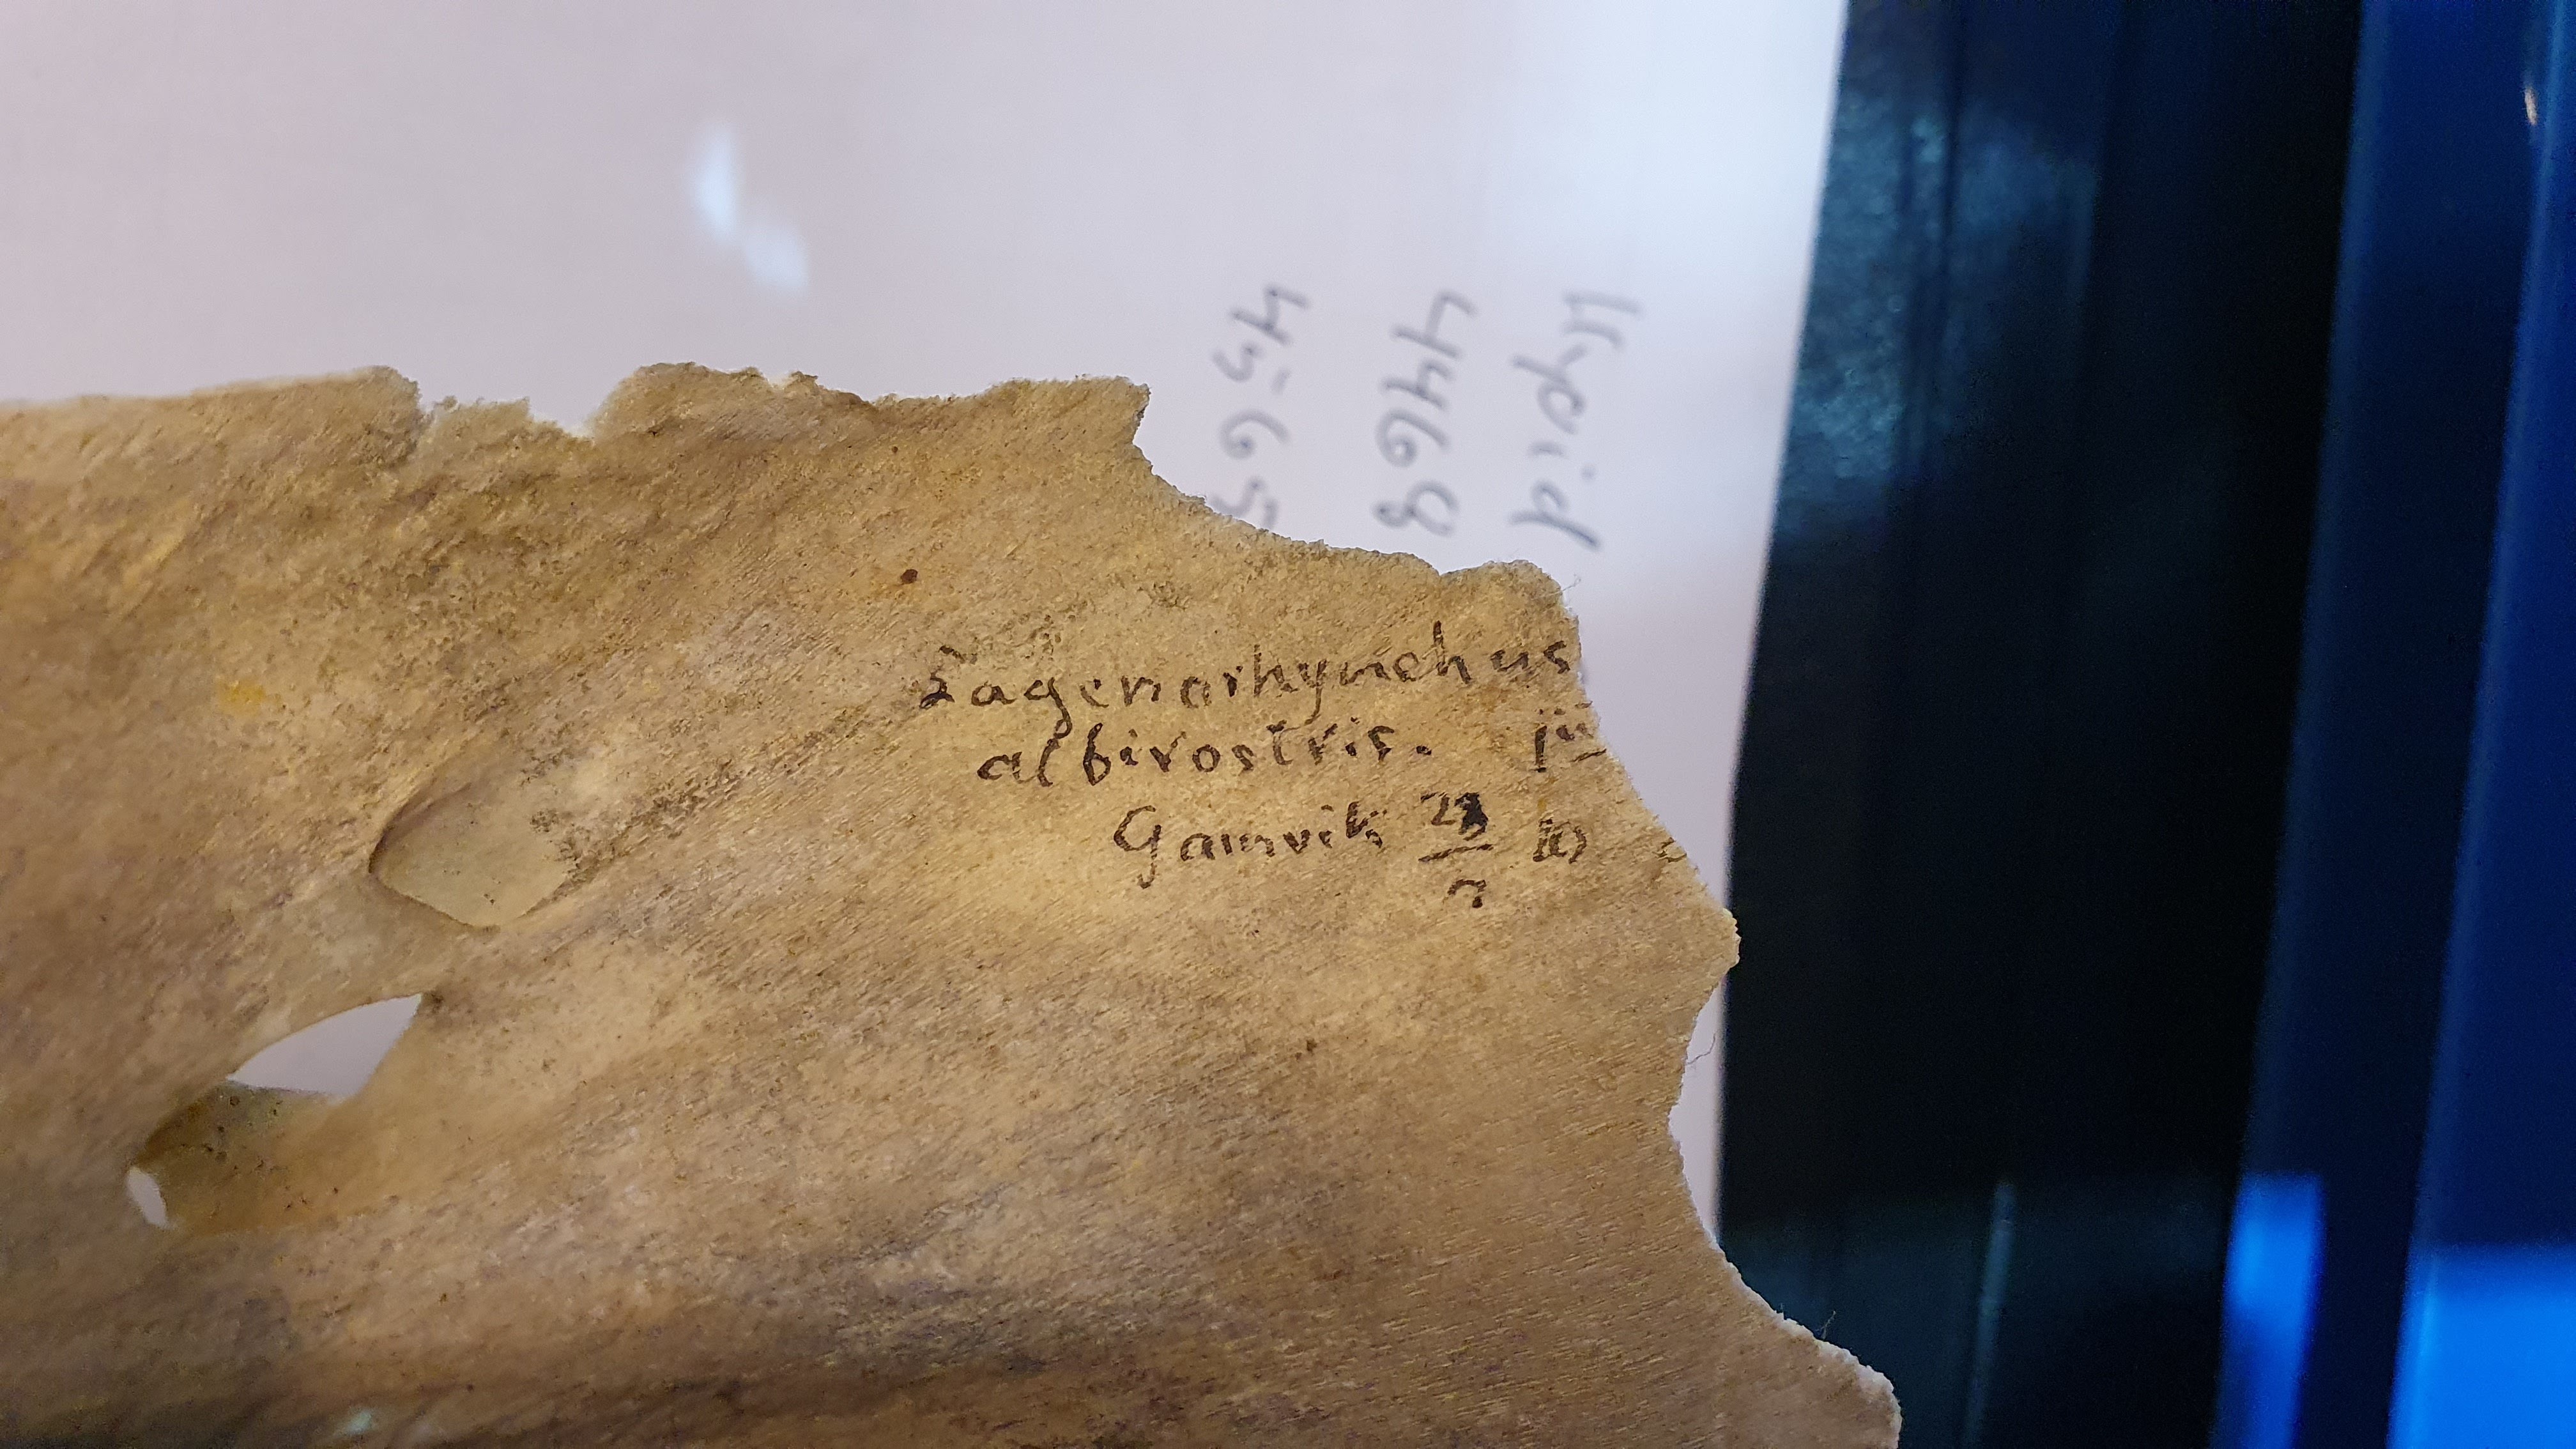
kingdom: Animalia
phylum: Chordata
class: Mammalia
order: Cetacea
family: Delphinidae
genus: Lagenorhynchus
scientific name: Lagenorhynchus albirostris
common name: White-beaked dolphin
